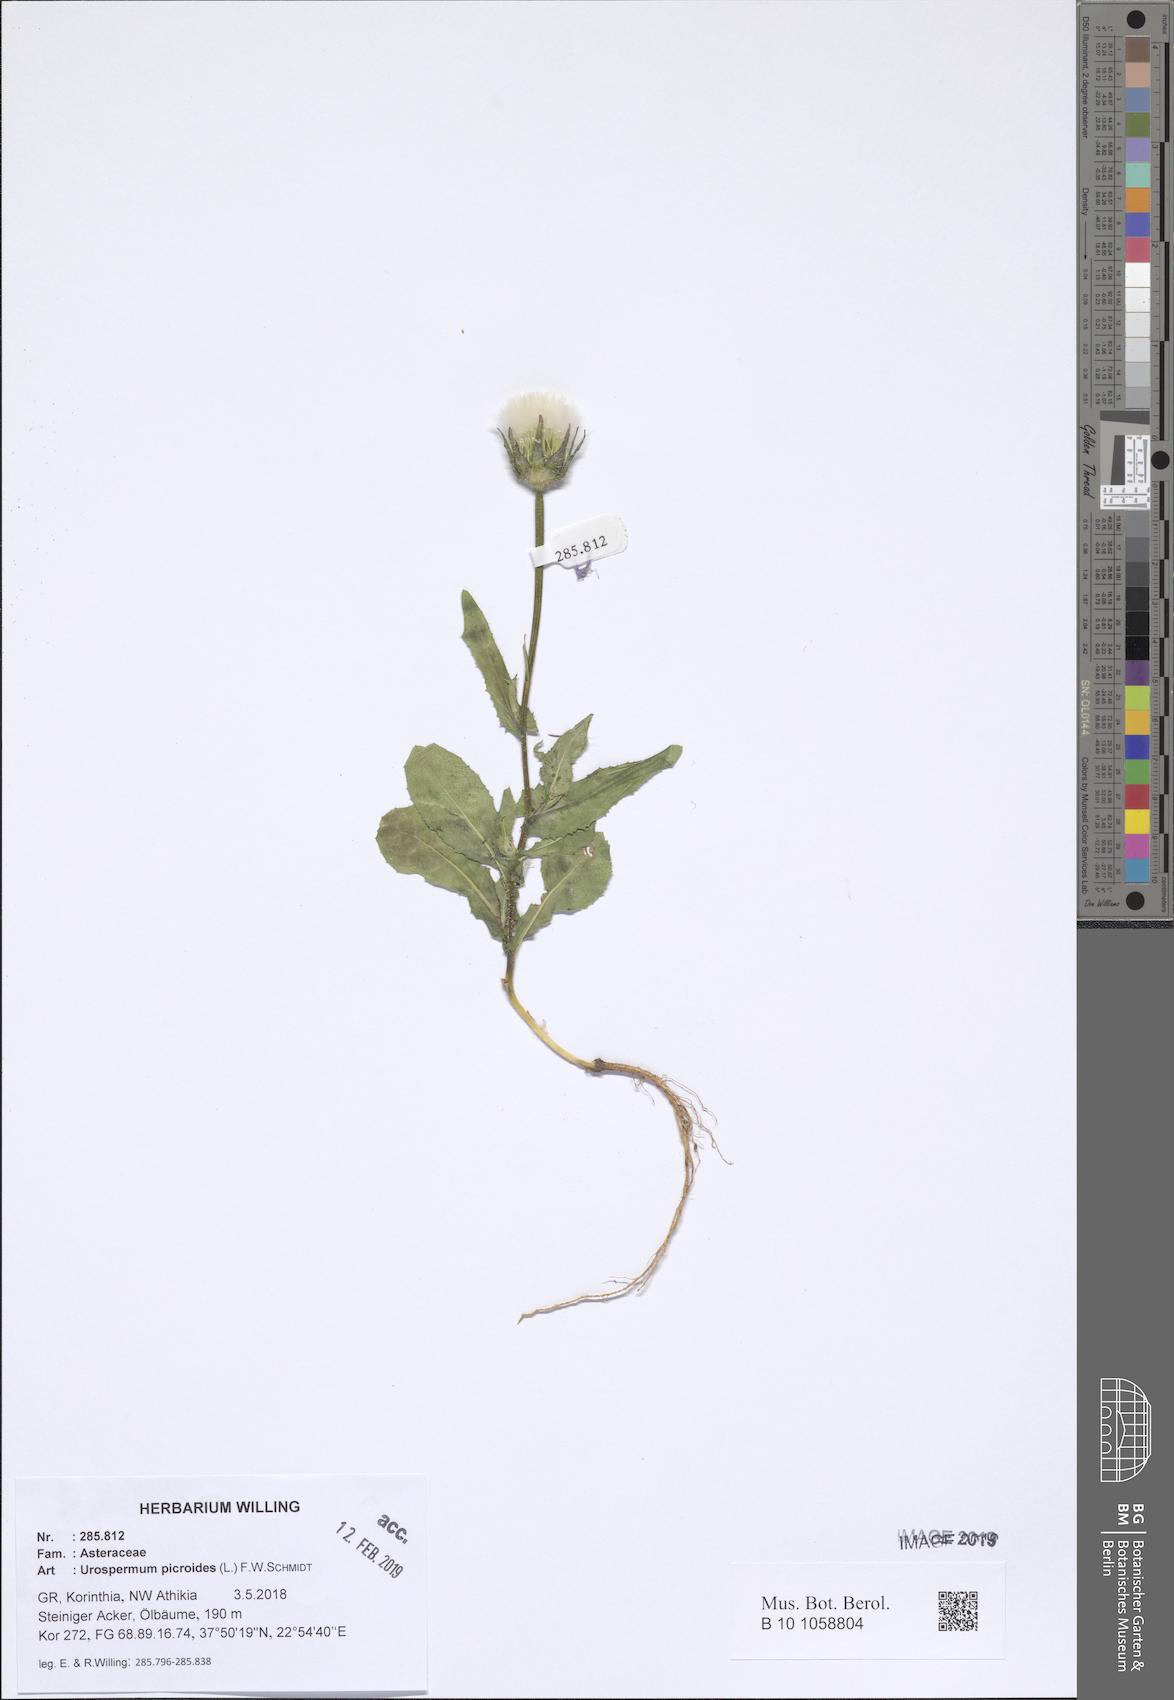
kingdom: Plantae
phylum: Tracheophyta
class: Magnoliopsida
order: Asterales
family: Asteraceae
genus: Urospermum
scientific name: Urospermum picroides
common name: False hawkbit
